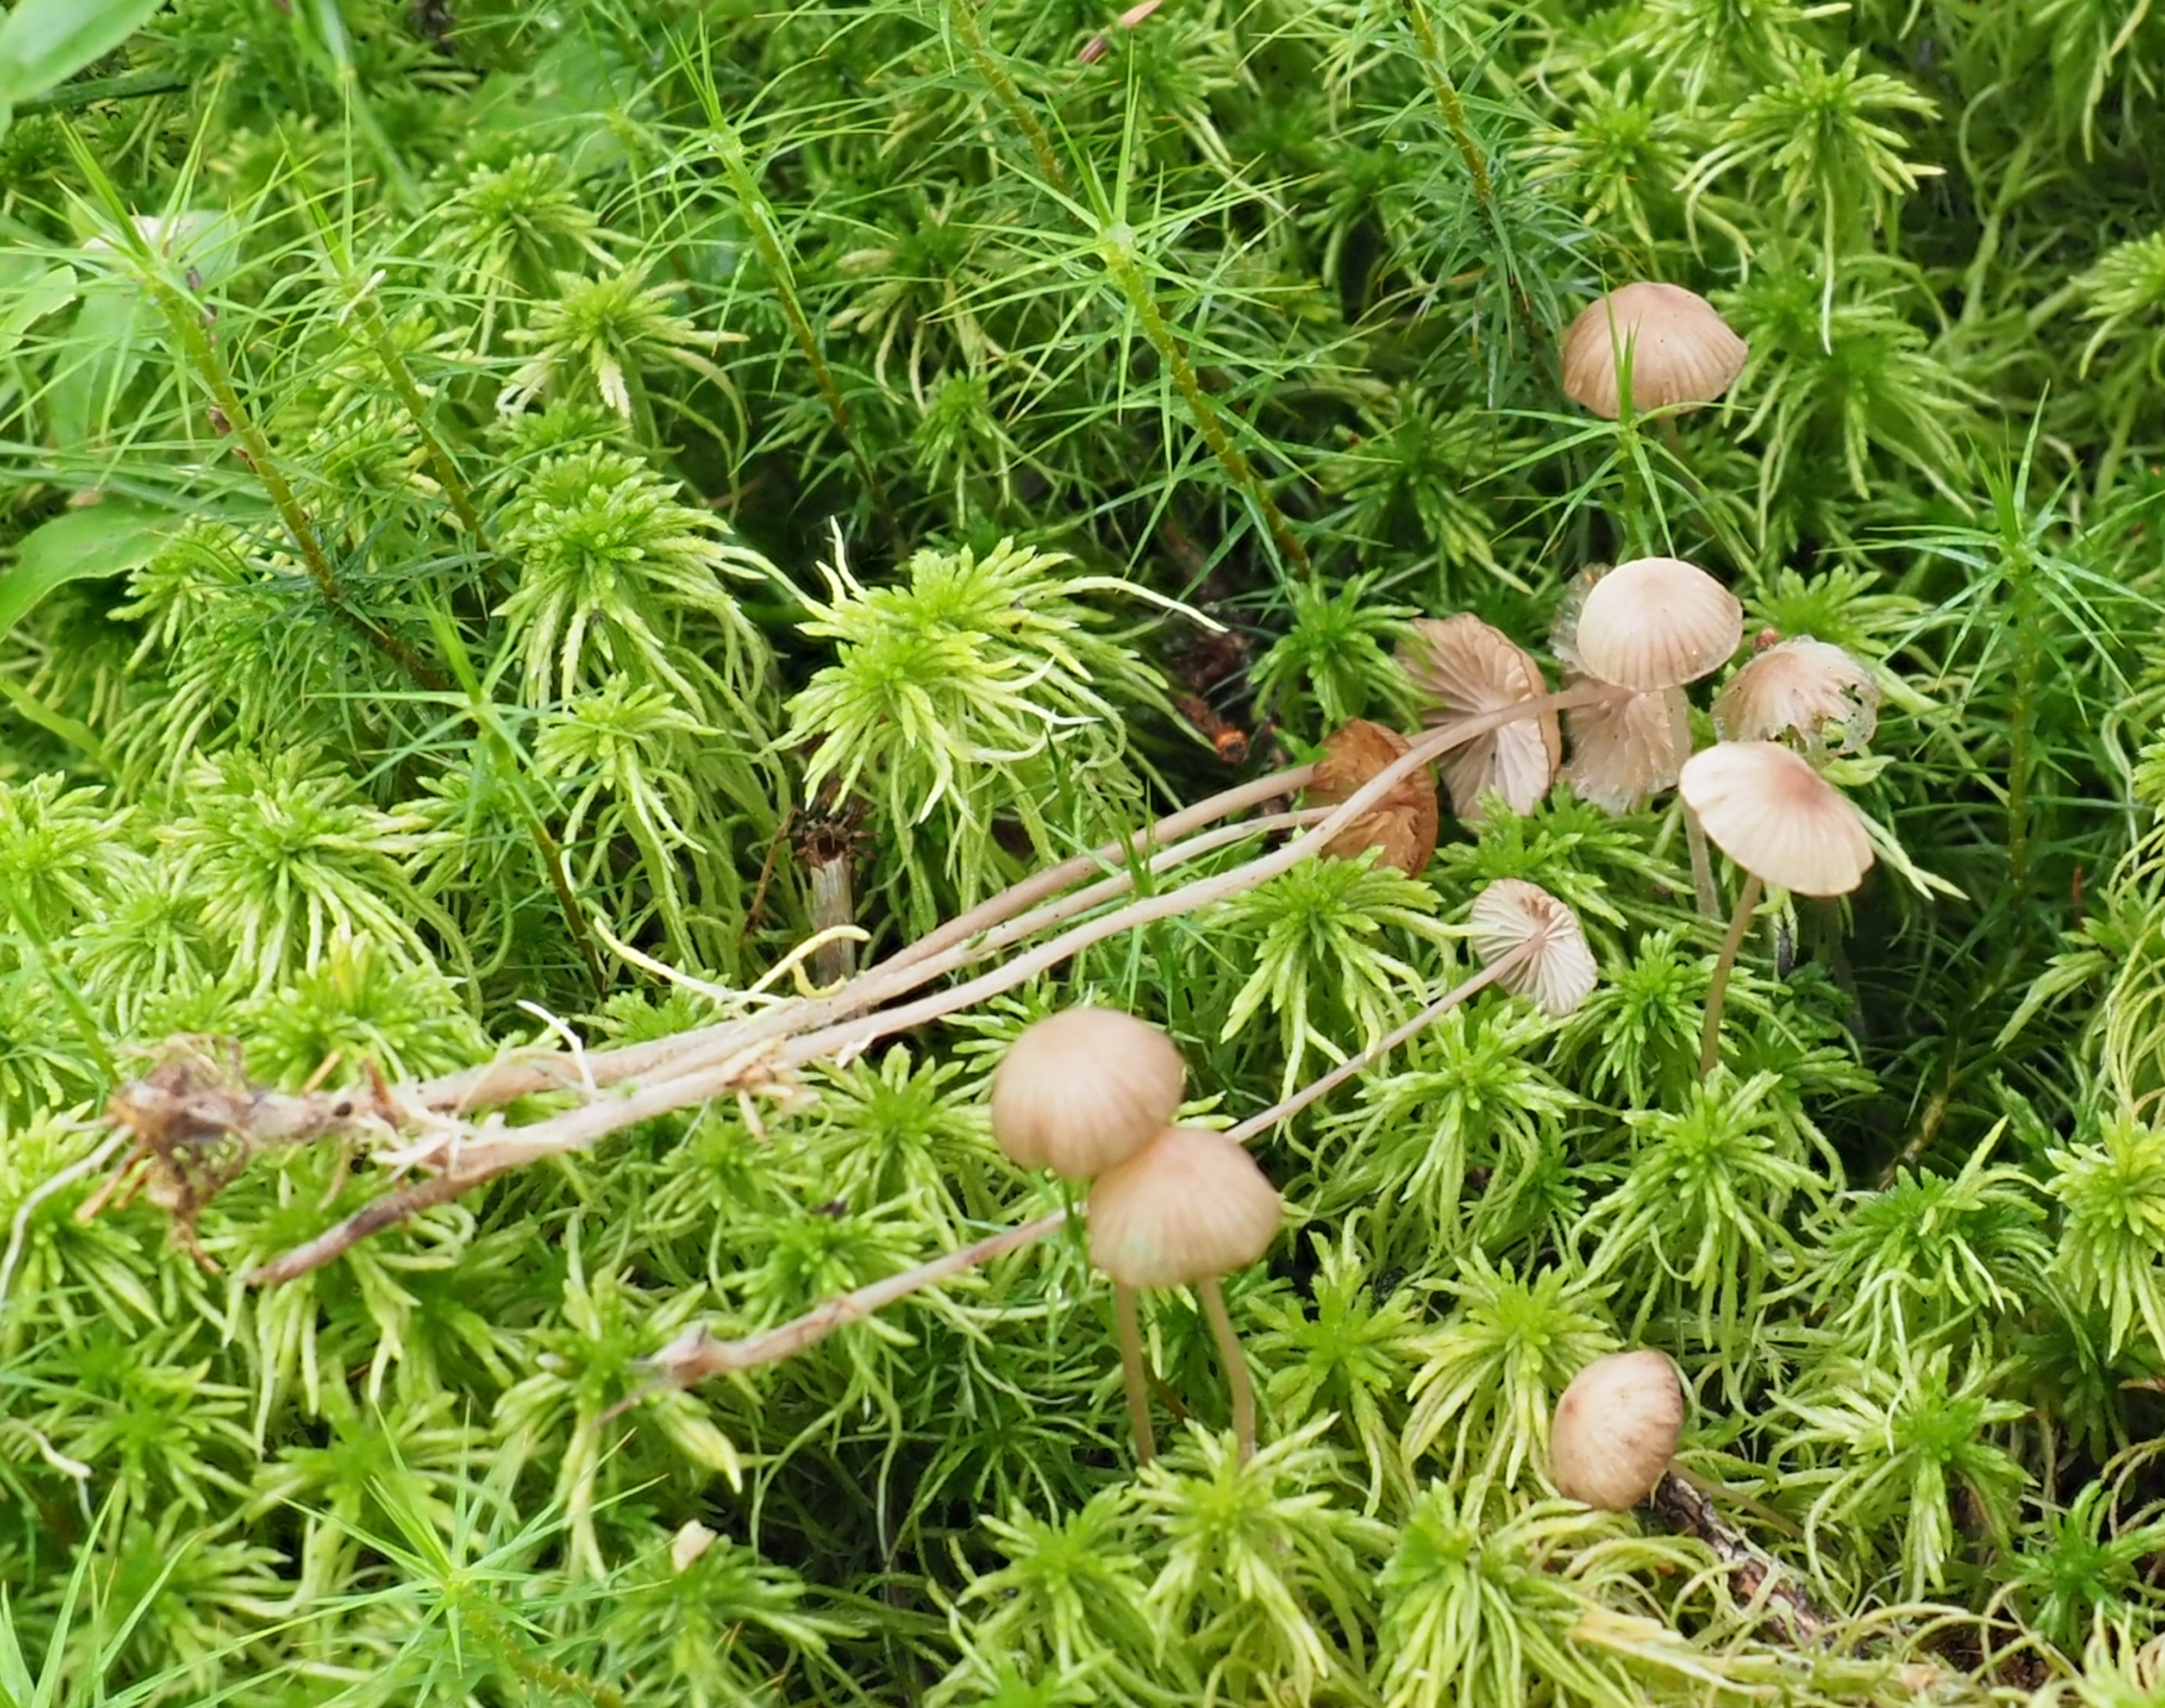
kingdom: Fungi
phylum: Basidiomycota
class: Agaricomycetes
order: Agaricales
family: Lyophyllaceae
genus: Sphagnurus
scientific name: Sphagnurus paluster
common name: Sphagnum greyling
